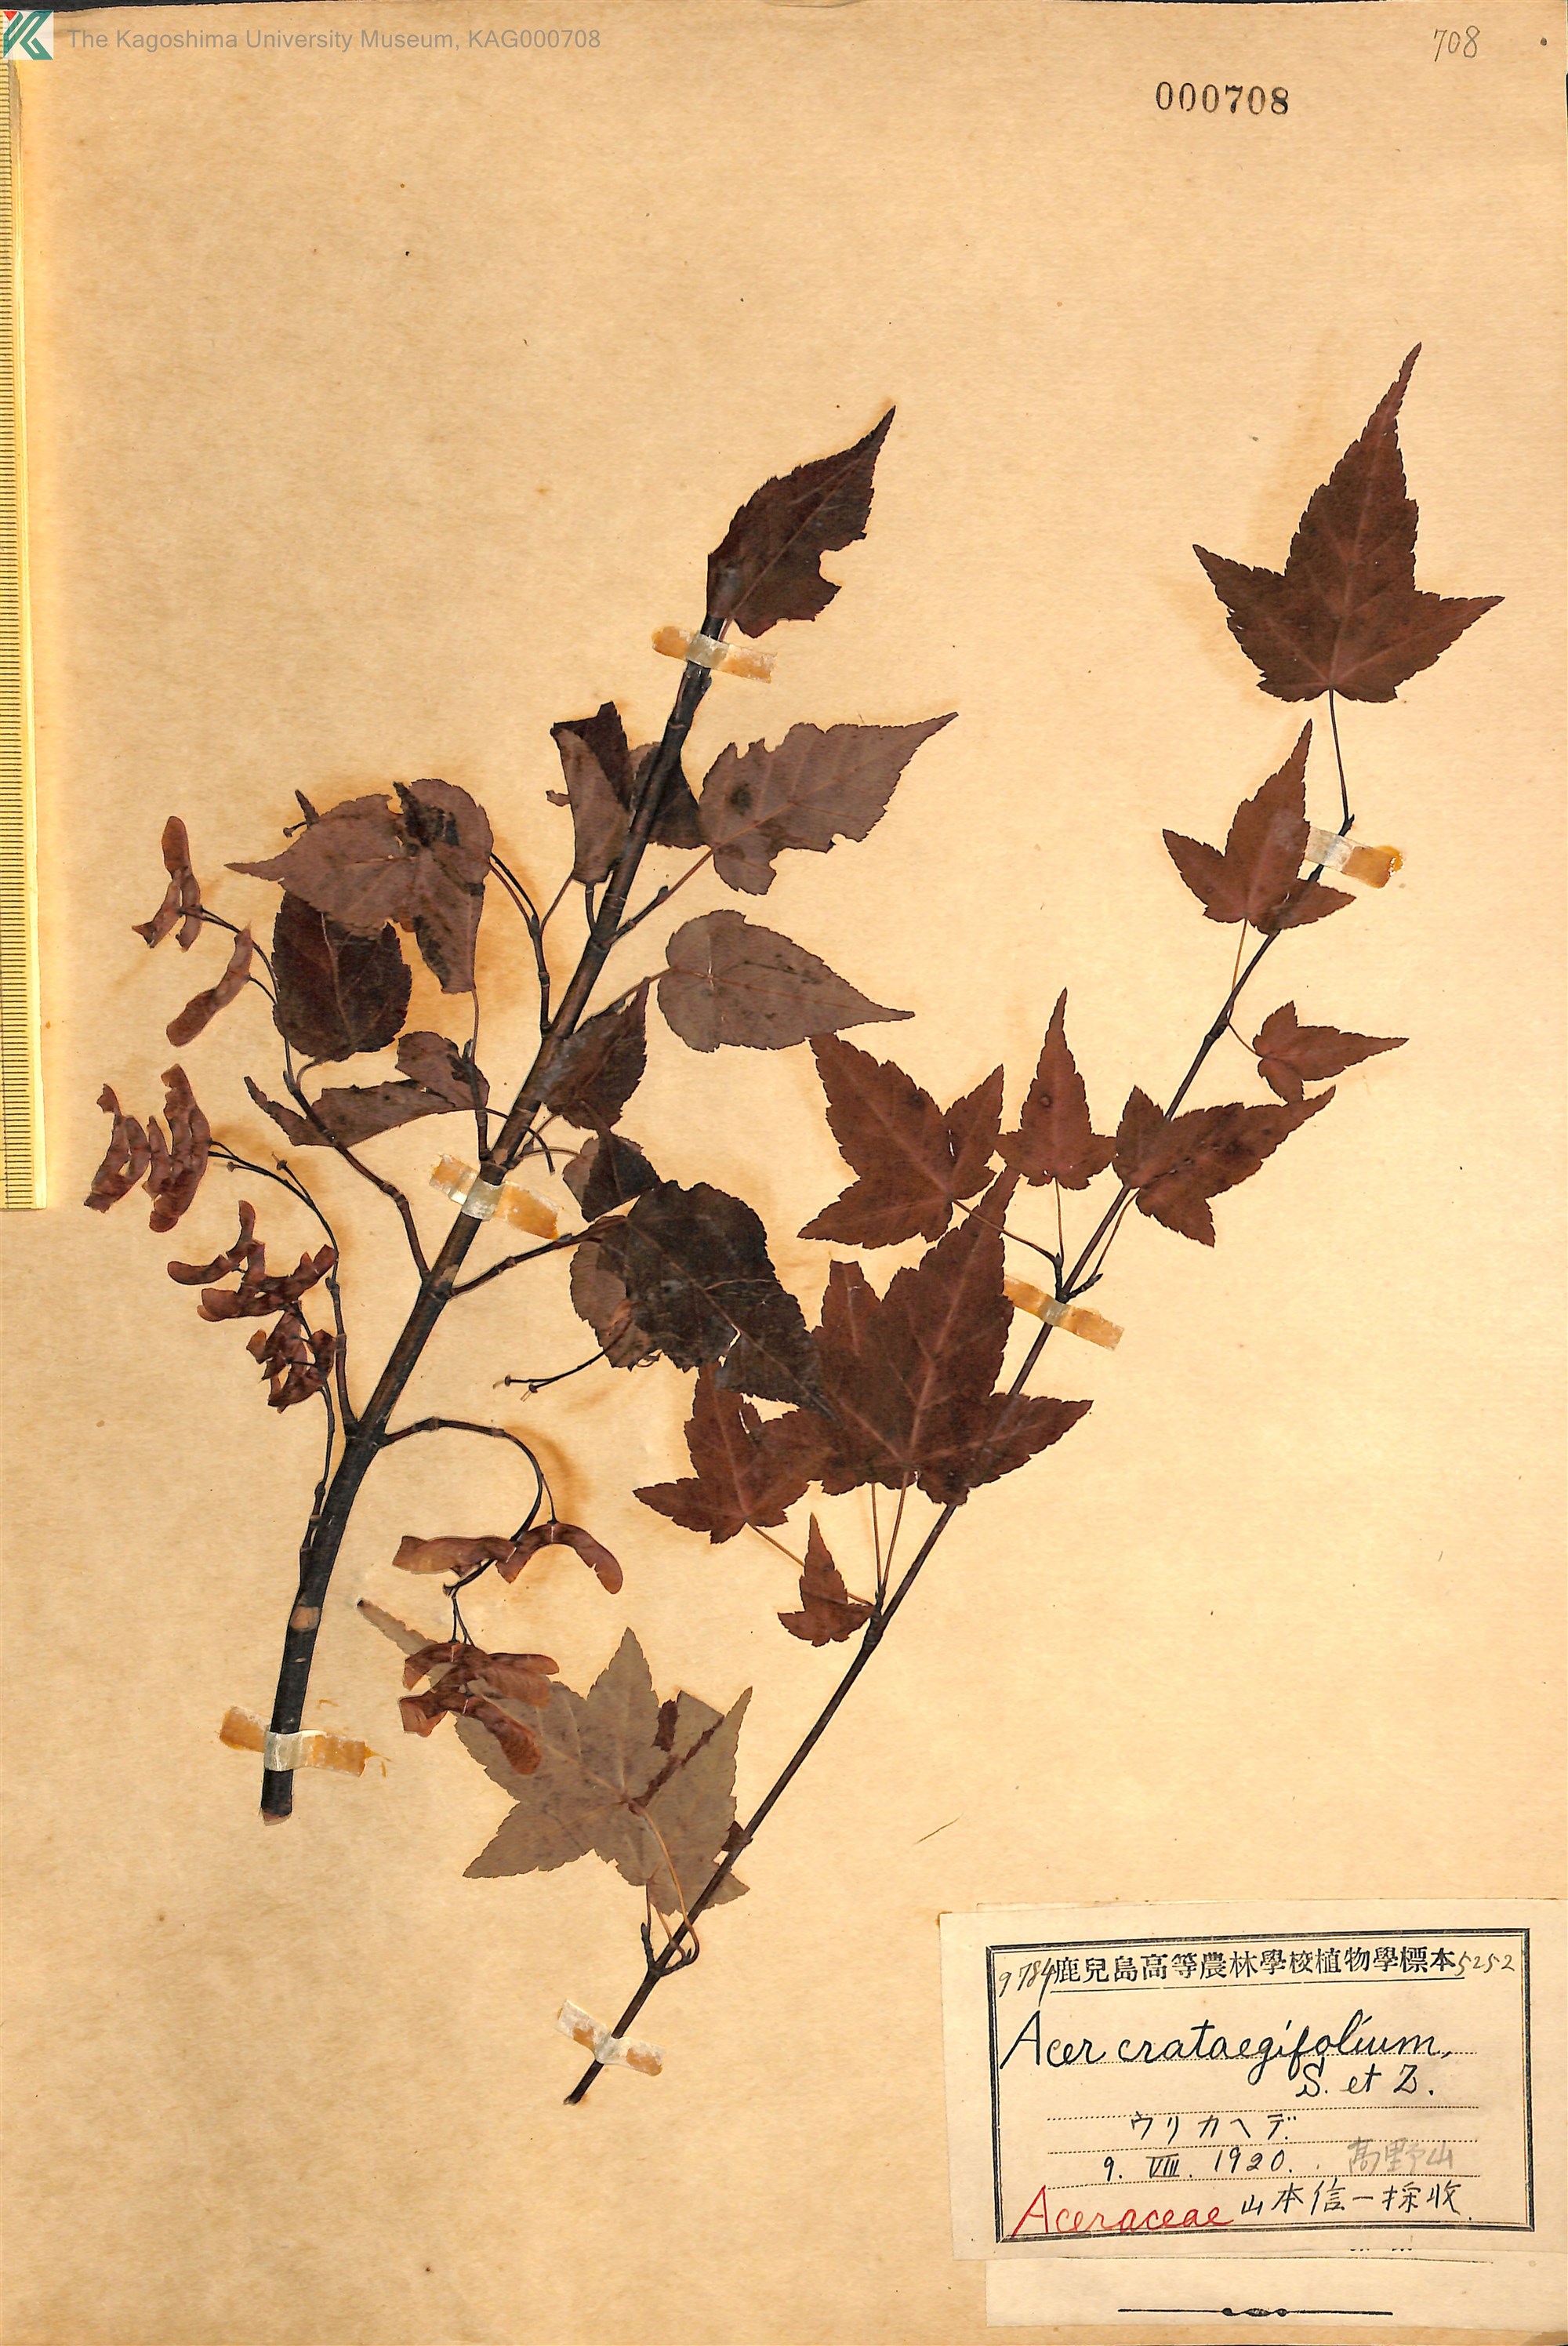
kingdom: Plantae
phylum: Tracheophyta
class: Magnoliopsida
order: Sapindales
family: Sapindaceae
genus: Acer
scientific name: Acer crataegifolium
